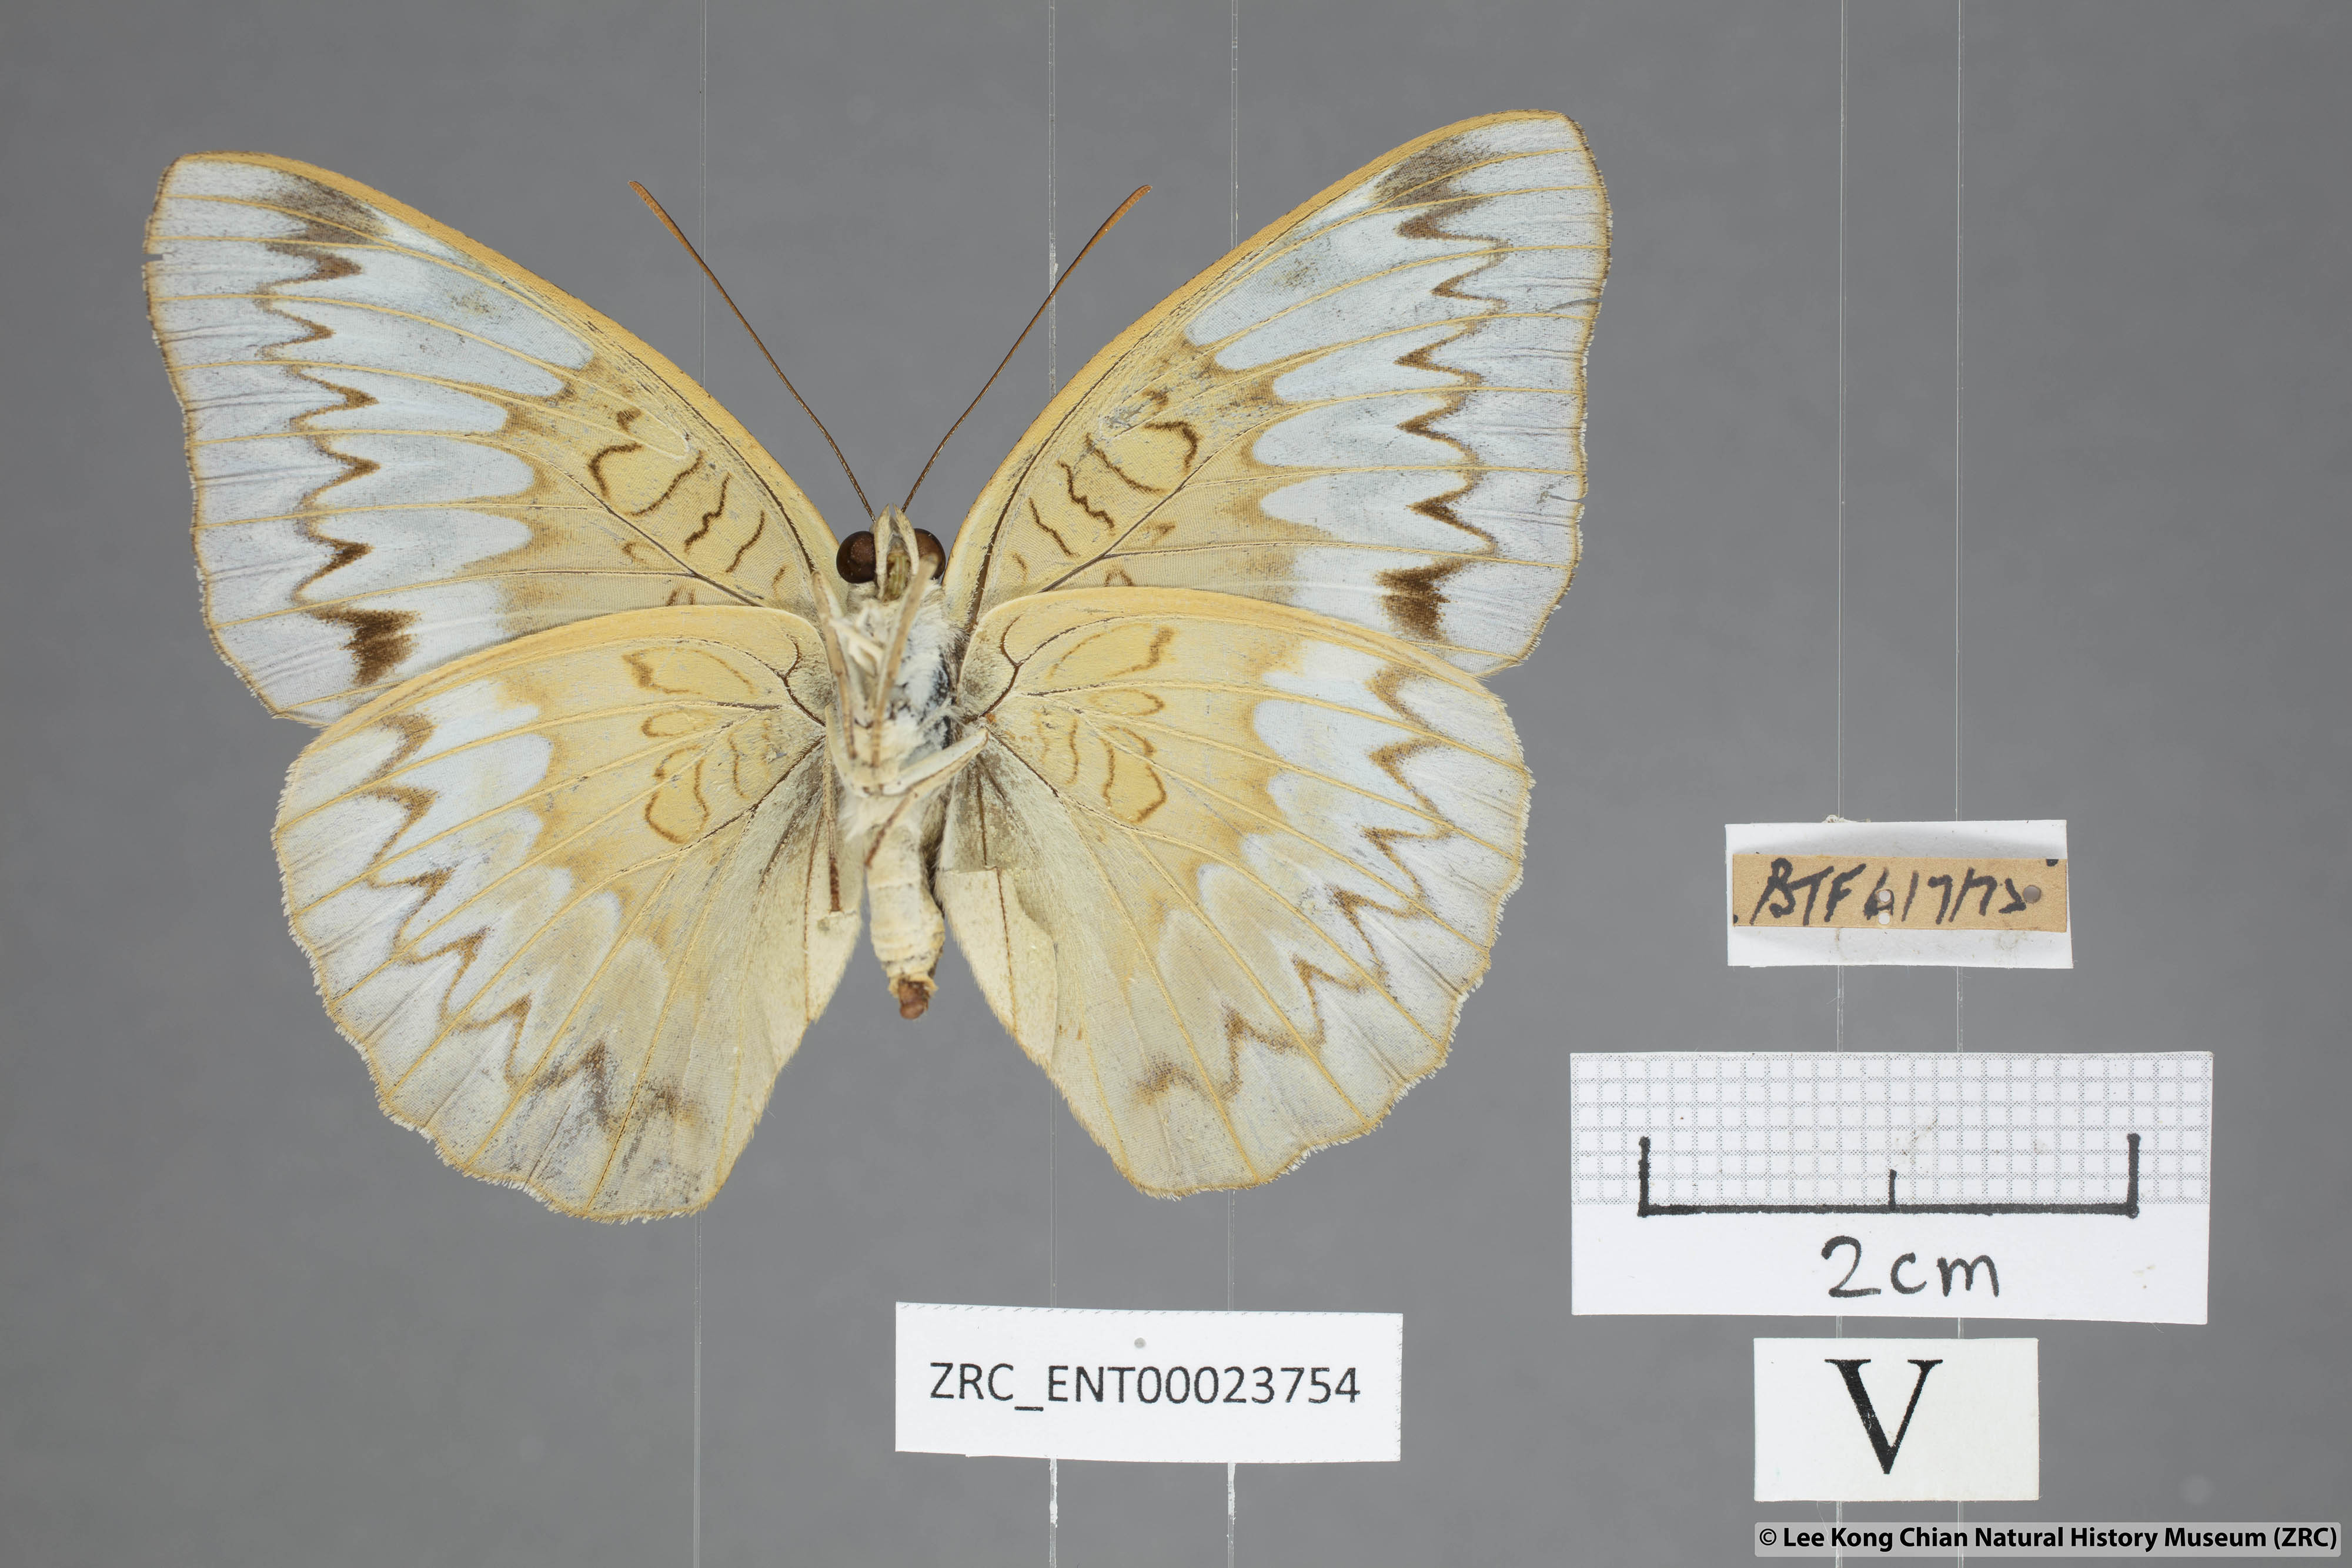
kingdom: Animalia
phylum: Arthropoda
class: Insecta
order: Lepidoptera
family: Nymphalidae
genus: Euthalia
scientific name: Euthalia monina
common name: Powdered baron
